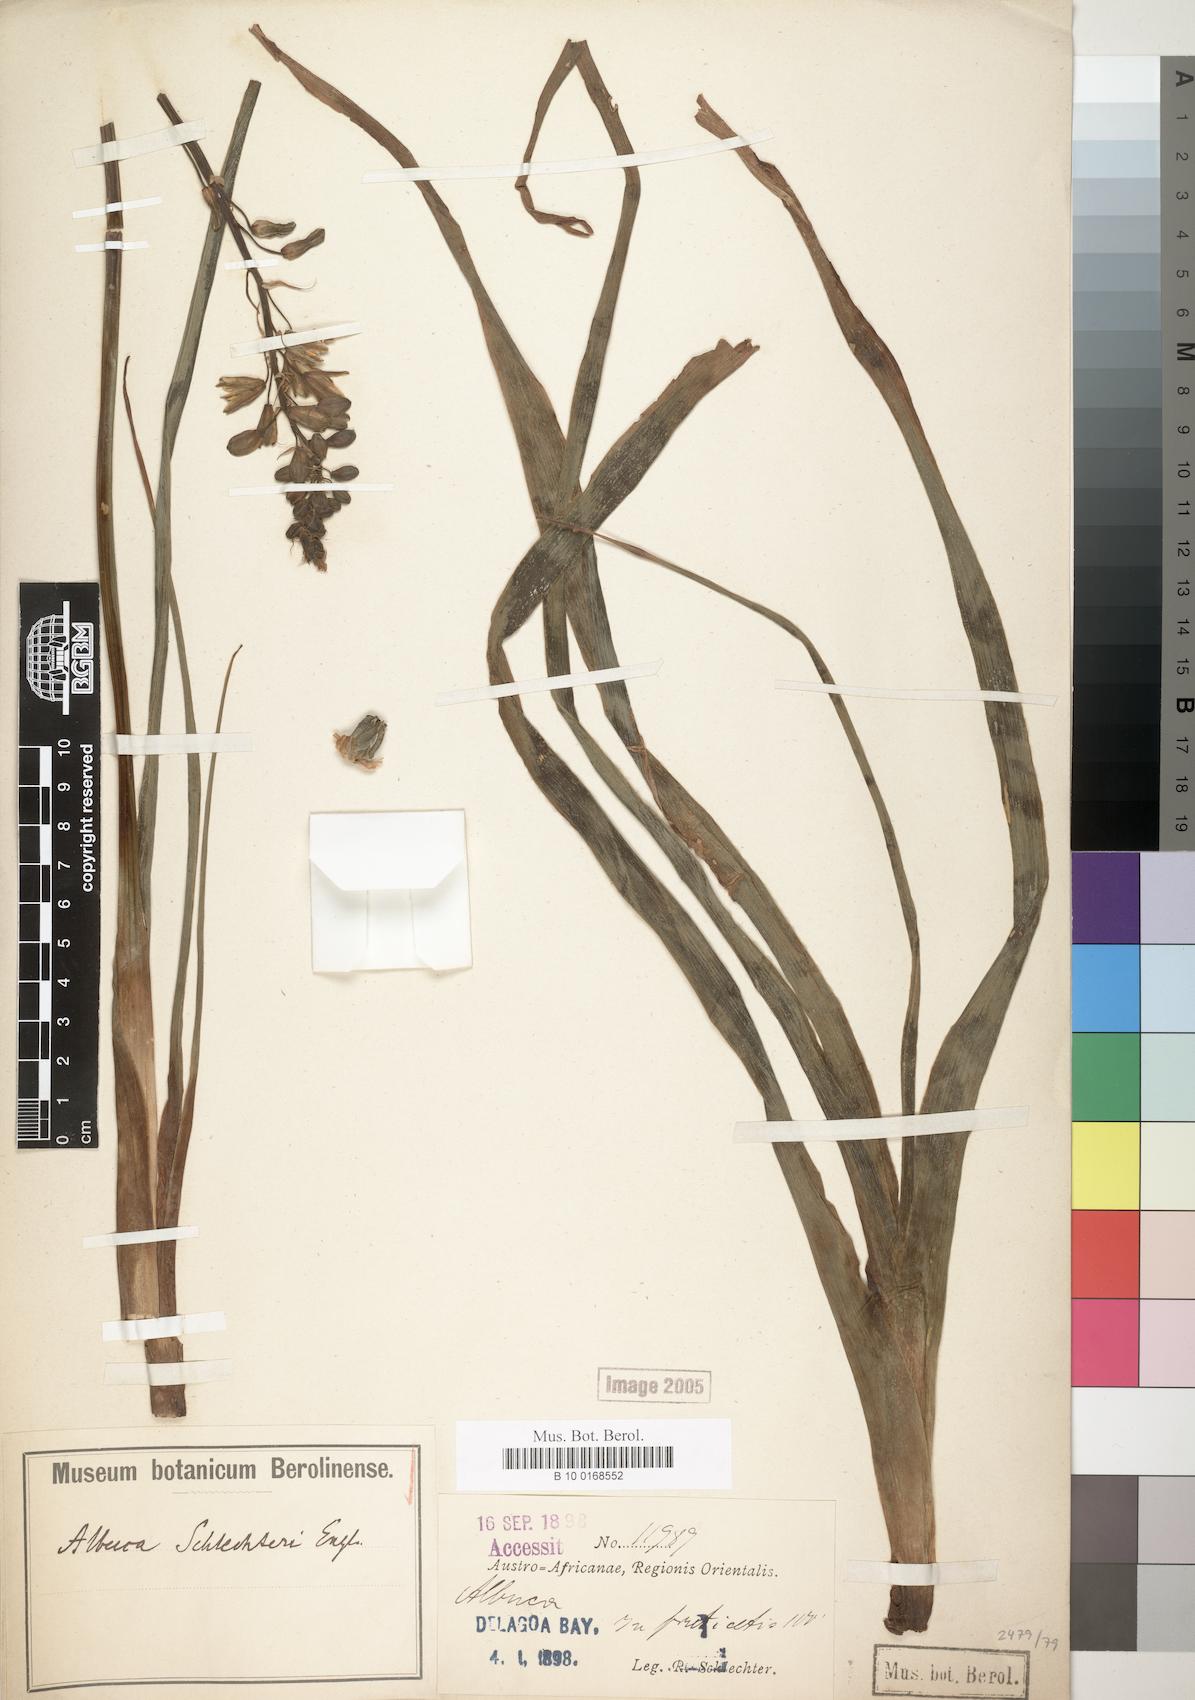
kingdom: Plantae
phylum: Tracheophyta
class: Liliopsida
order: Asparagales
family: Asparagaceae
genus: Albuca
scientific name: Albuca
